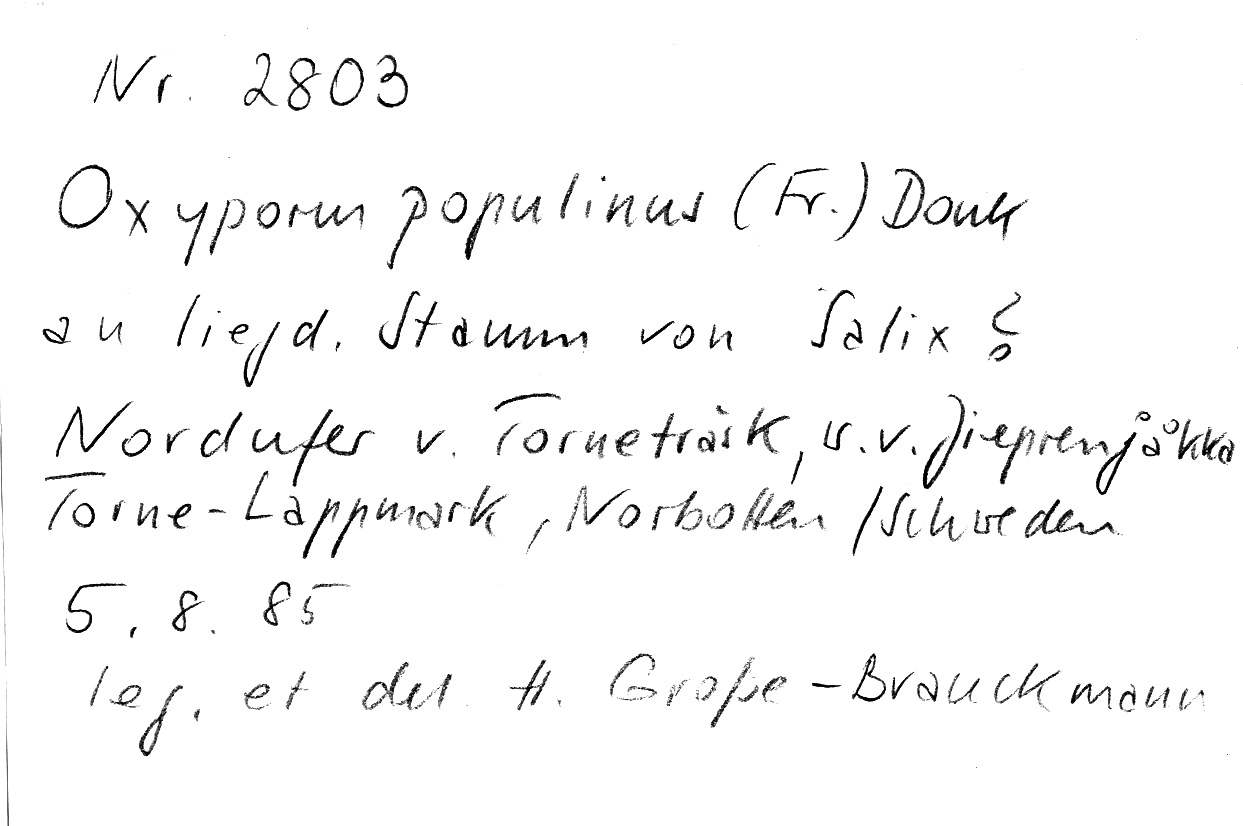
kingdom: Plantae
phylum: Tracheophyta
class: Magnoliopsida
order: Rosales
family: Rosaceae
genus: Malus
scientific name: Malus
